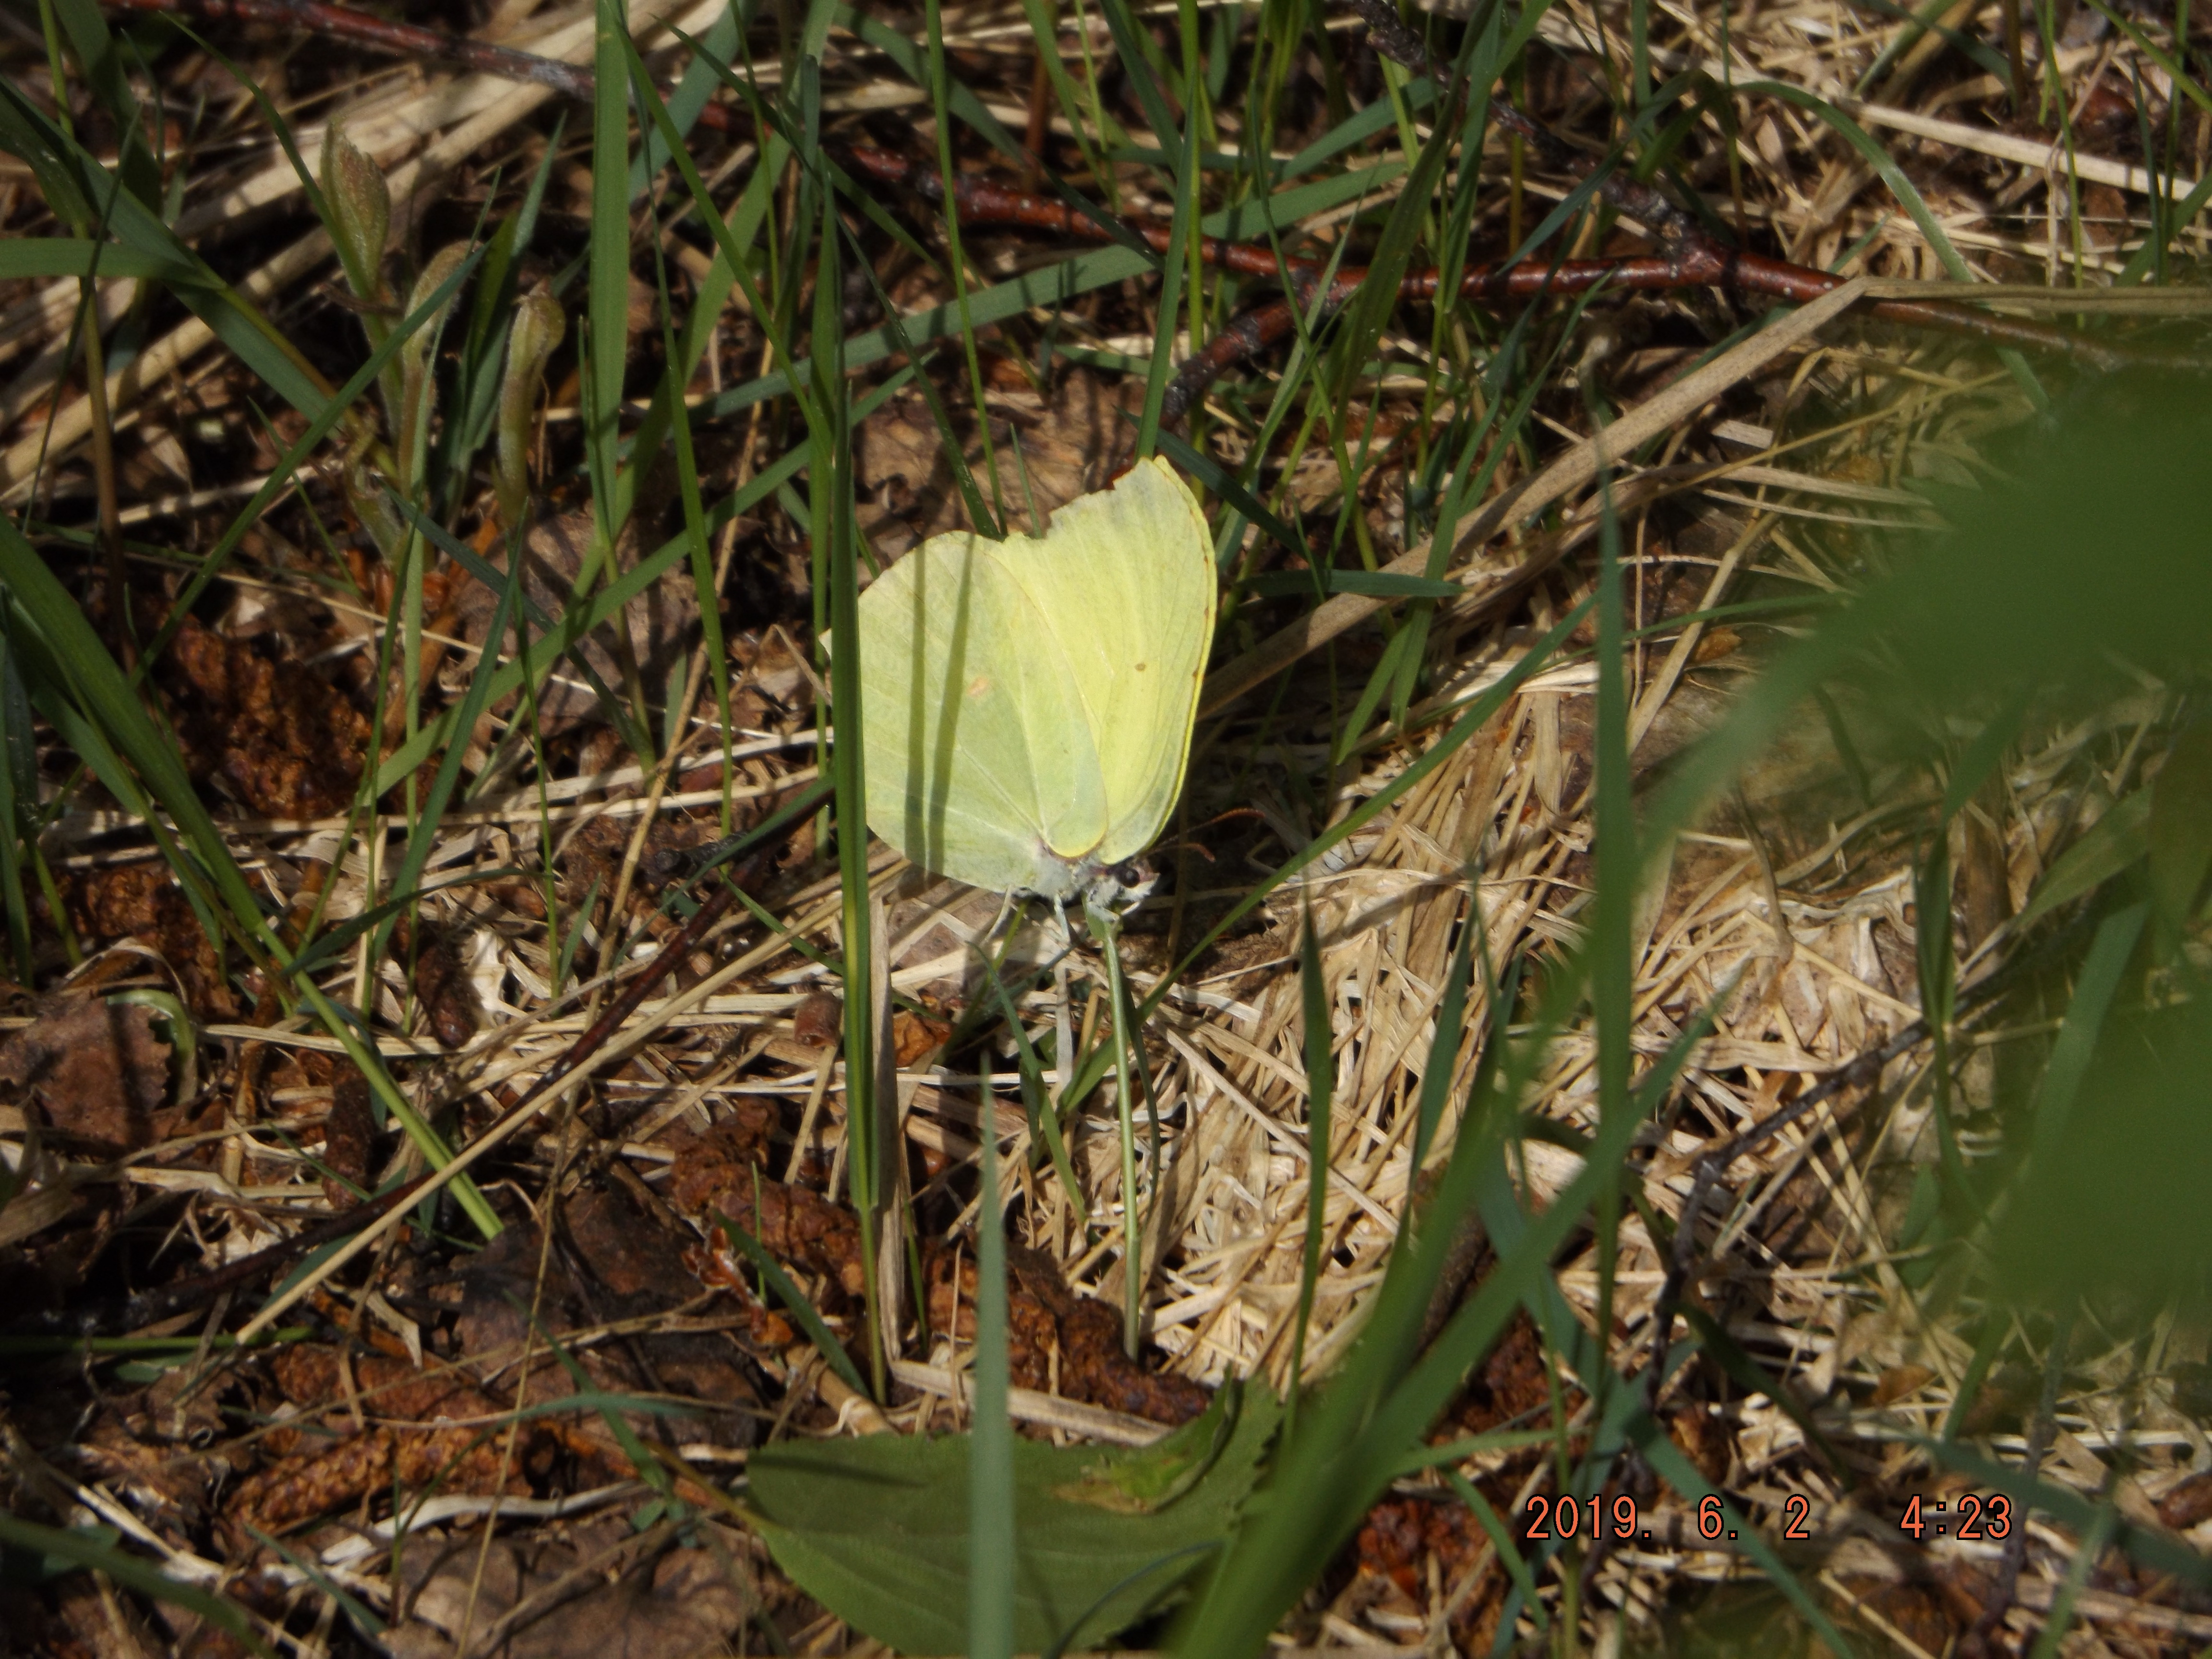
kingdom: Animalia
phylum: Arthropoda
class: Insecta
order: Lepidoptera
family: Pieridae
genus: Gonepteryx
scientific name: Gonepteryx rhamni
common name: Brimstone
